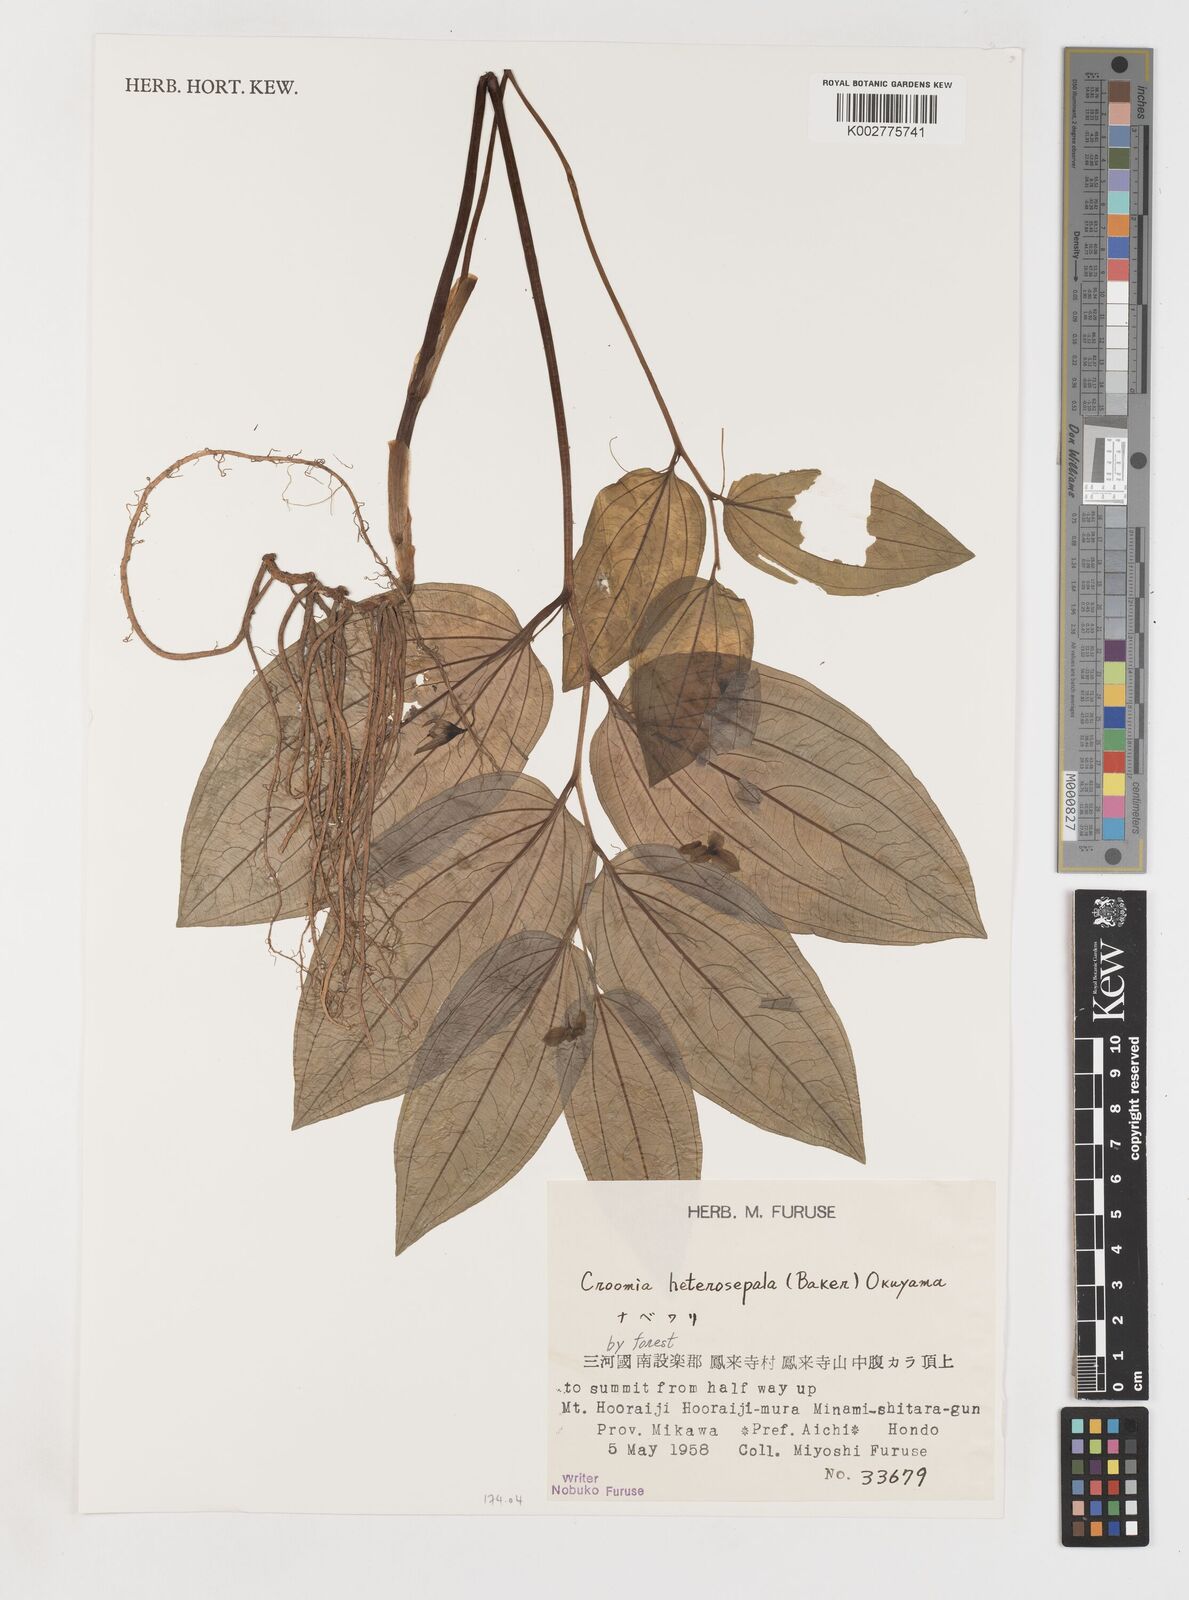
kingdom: Plantae
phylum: Tracheophyta
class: Liliopsida
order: Pandanales
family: Stemonaceae
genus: Croomia
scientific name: Croomia heterosepala
